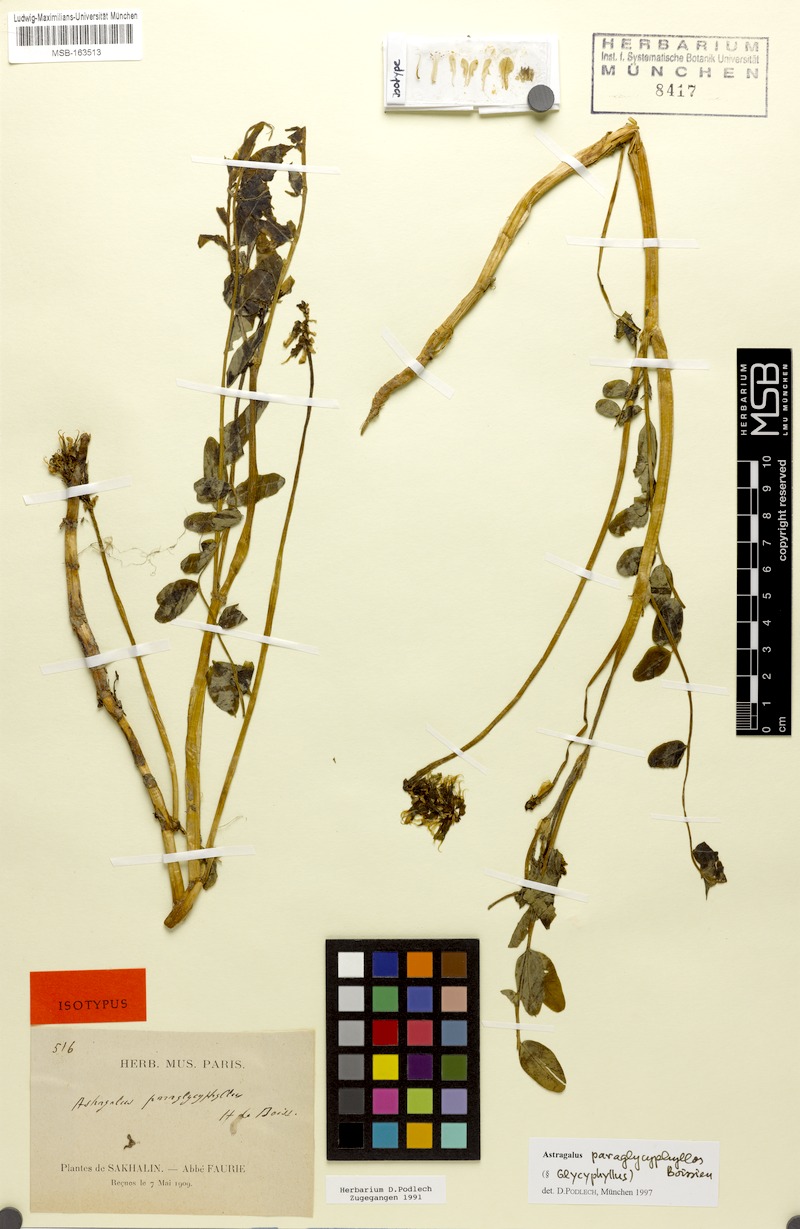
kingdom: Plantae
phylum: Tracheophyta
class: Magnoliopsida
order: Fabales
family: Fabaceae
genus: Astragalus
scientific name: Astragalus paraglycyphyllos
